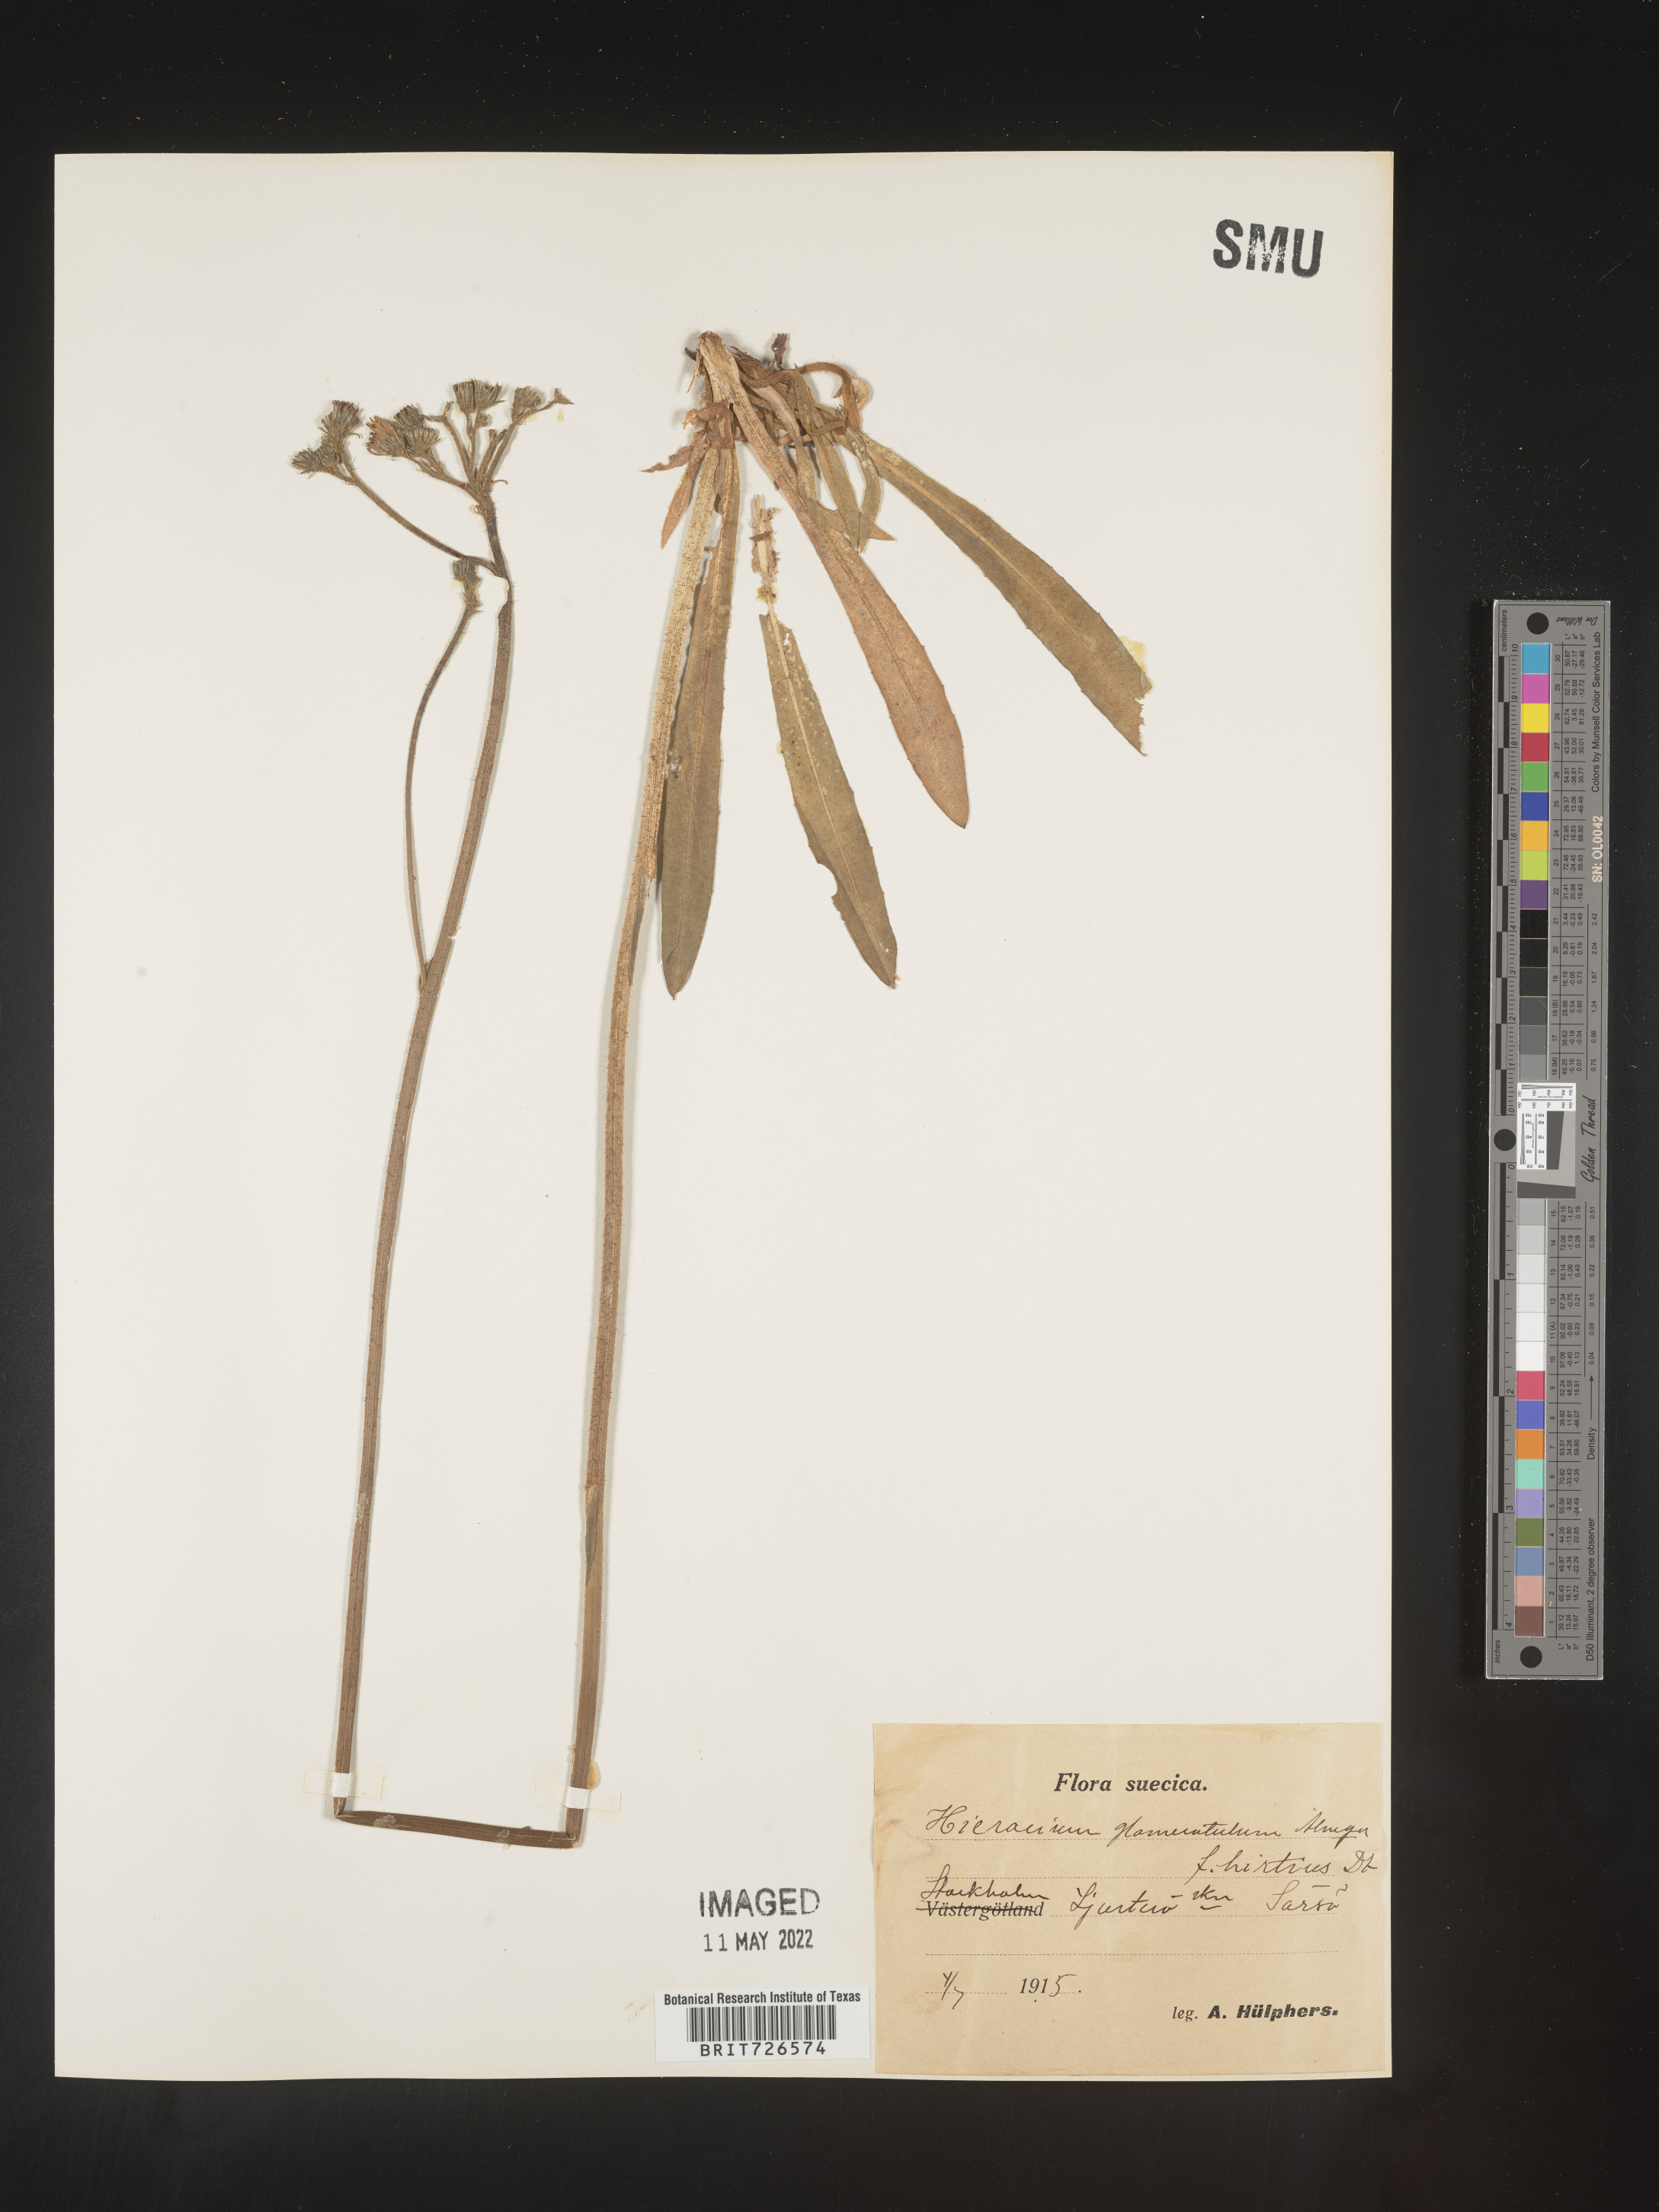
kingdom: Plantae
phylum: Tracheophyta
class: Magnoliopsida
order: Asterales
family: Asteraceae
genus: Hieracium
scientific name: Hieracium
